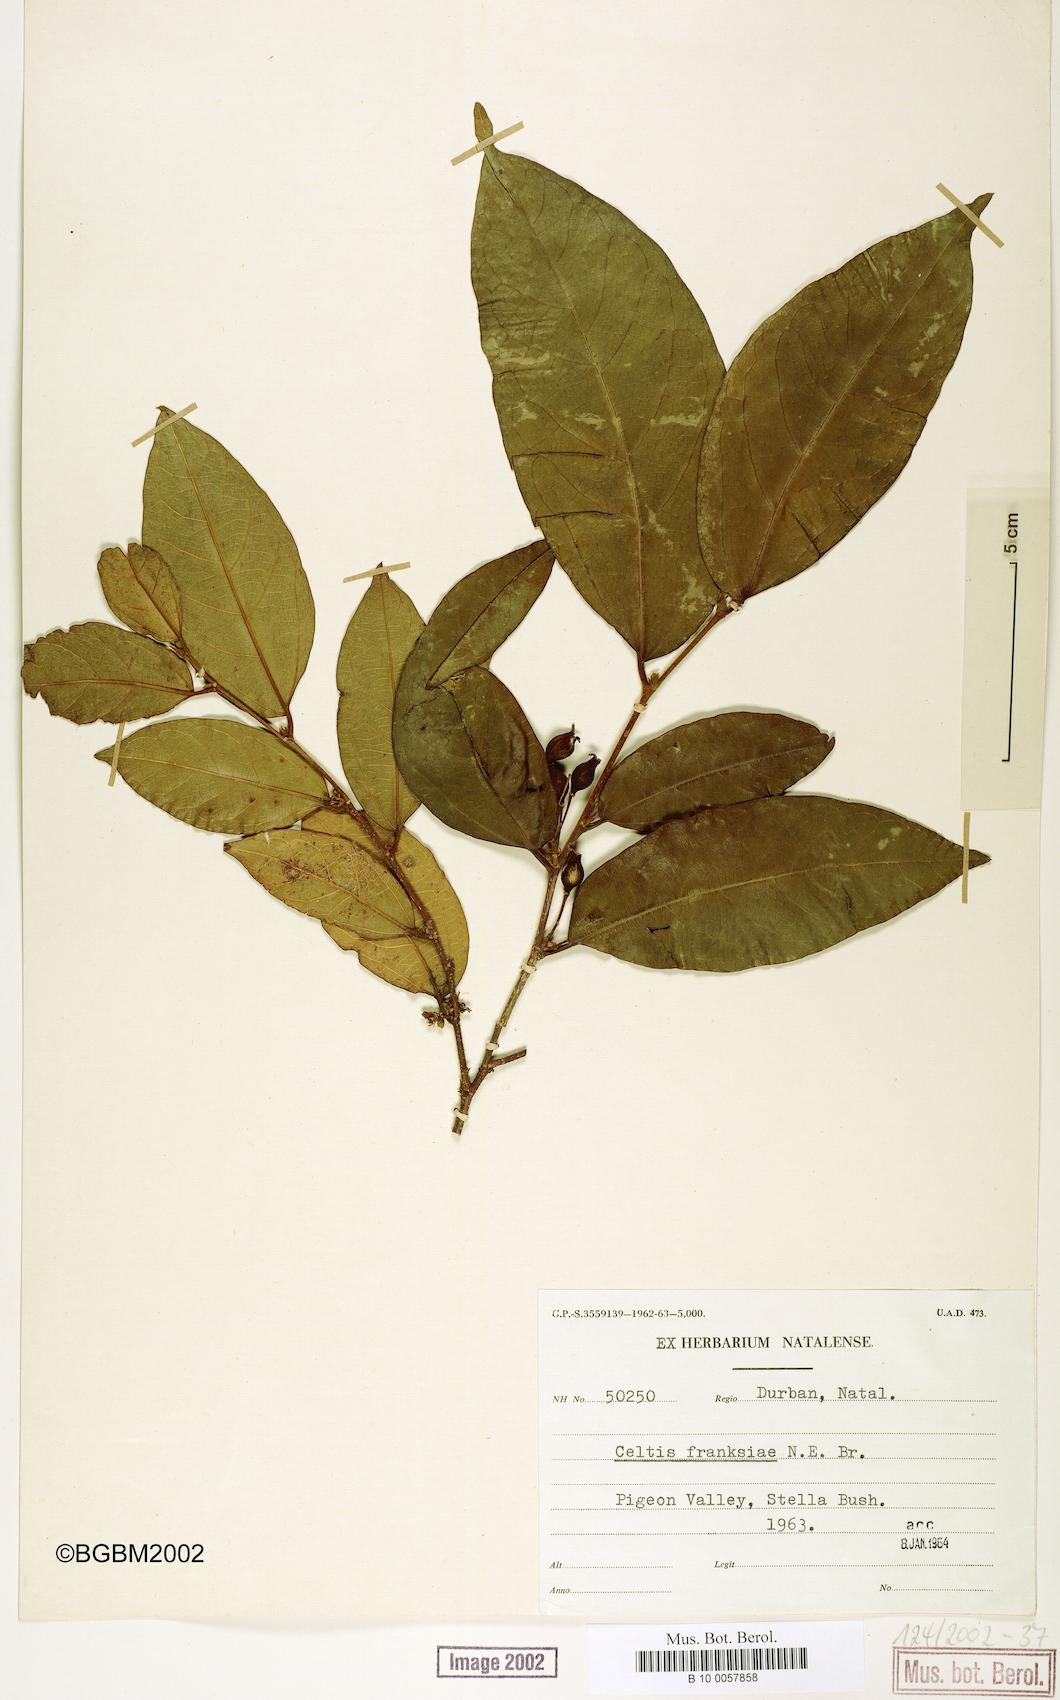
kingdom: Plantae
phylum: Tracheophyta
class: Magnoliopsida
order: Rosales
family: Cannabaceae
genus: Celtis
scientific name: Celtis mildbraedii
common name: Red-fruited stinkwood
